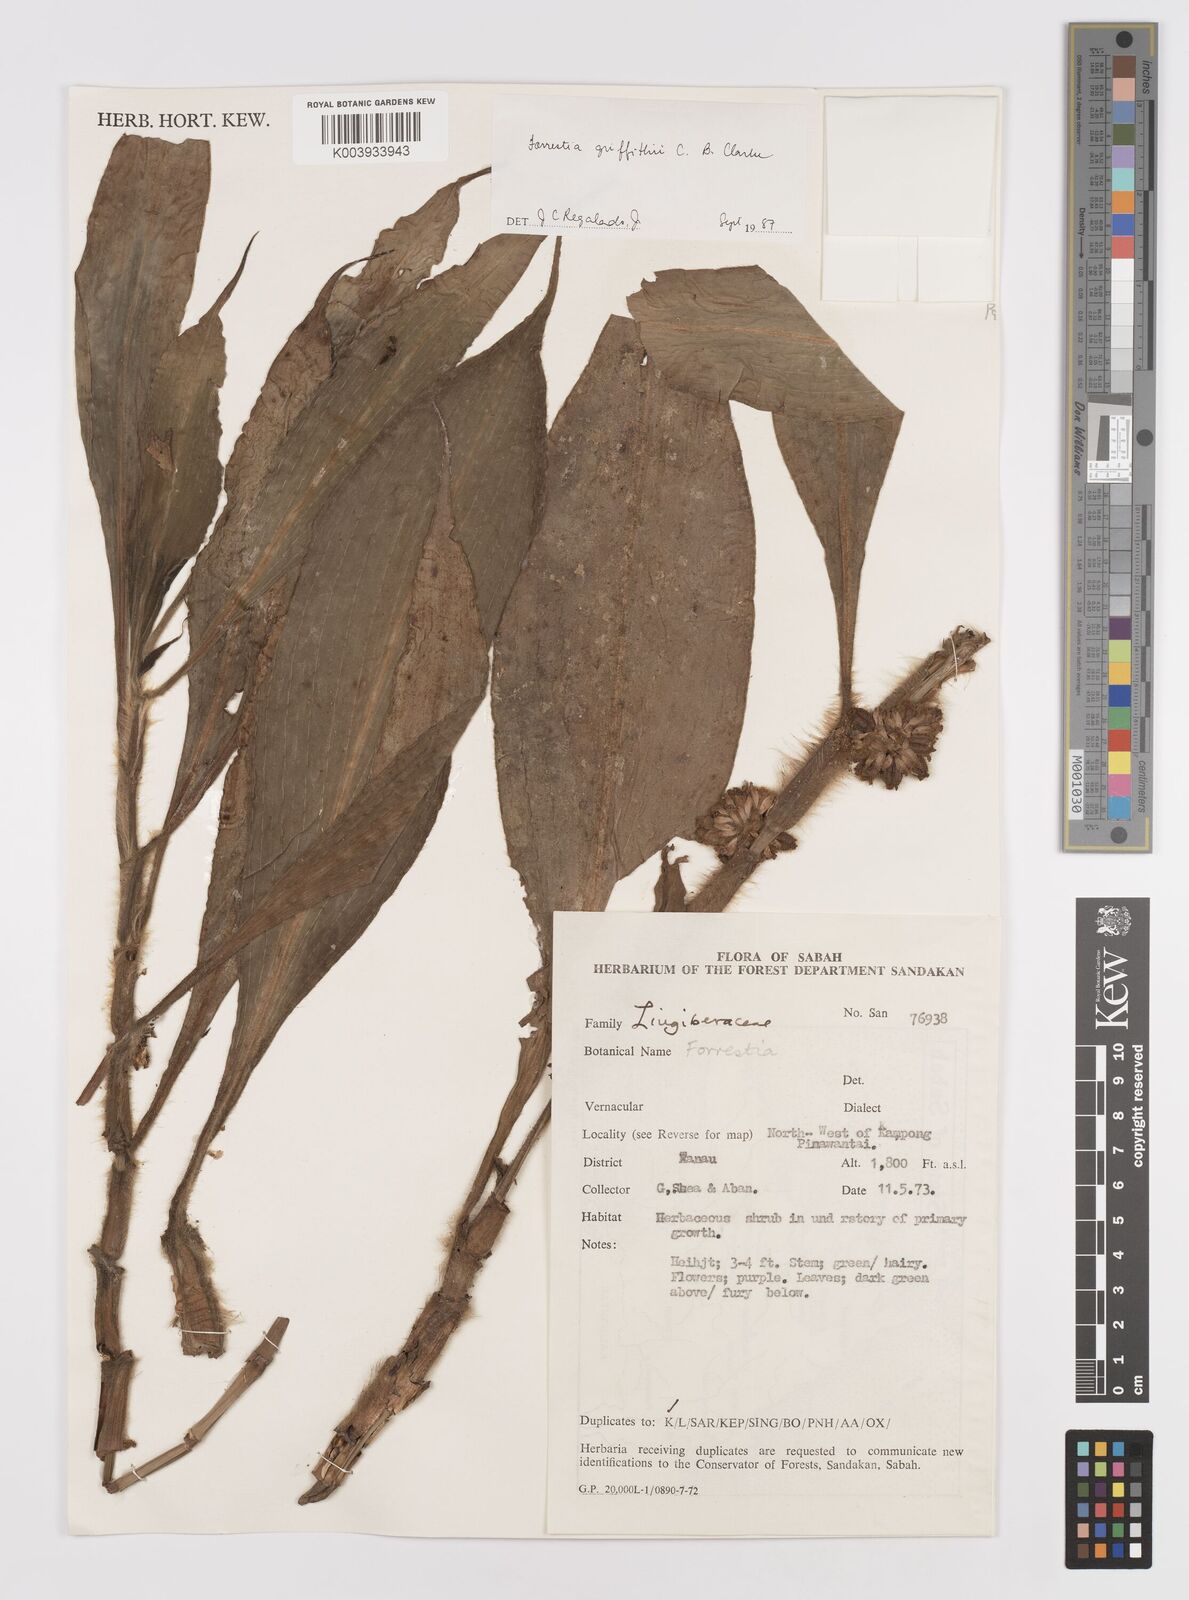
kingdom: Plantae
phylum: Tracheophyta
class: Liliopsida
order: Commelinales
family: Commelinaceae
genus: Amischotolype
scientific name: Amischotolype griffithii
